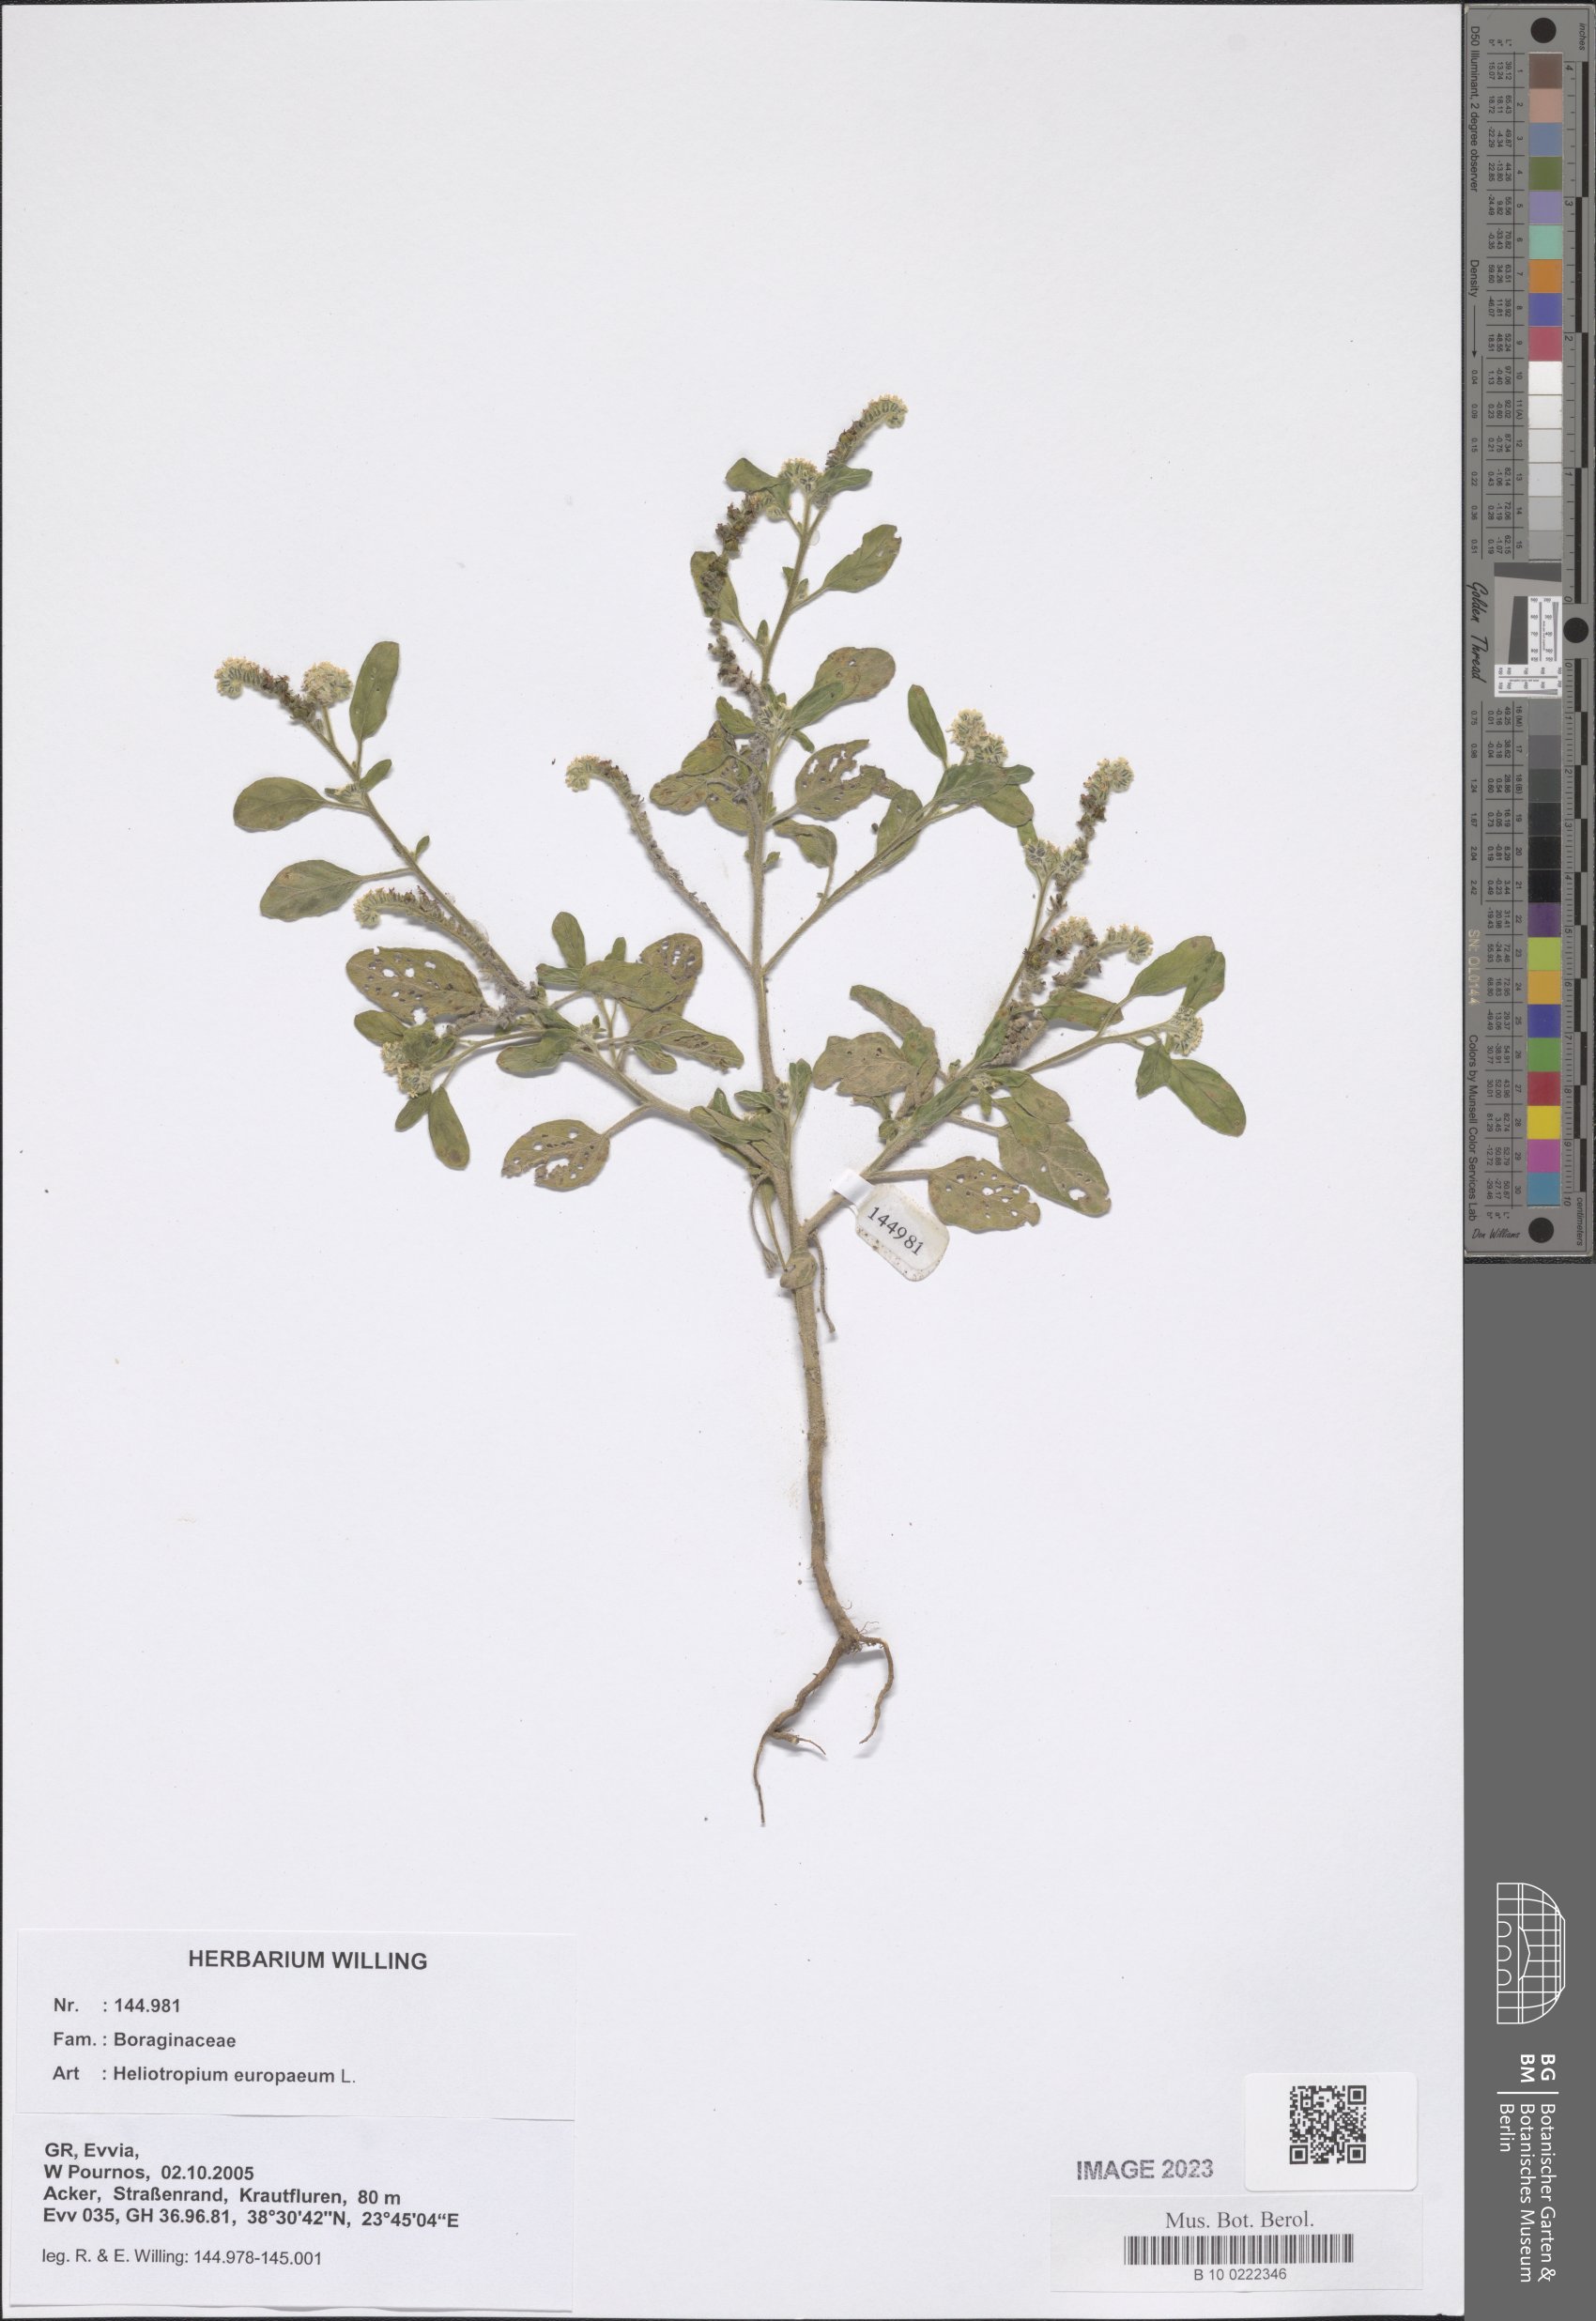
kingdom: Plantae
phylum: Tracheophyta
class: Magnoliopsida
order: Boraginales
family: Heliotropiaceae
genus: Heliotropium
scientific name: Heliotropium europaeum
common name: European heliotrope
